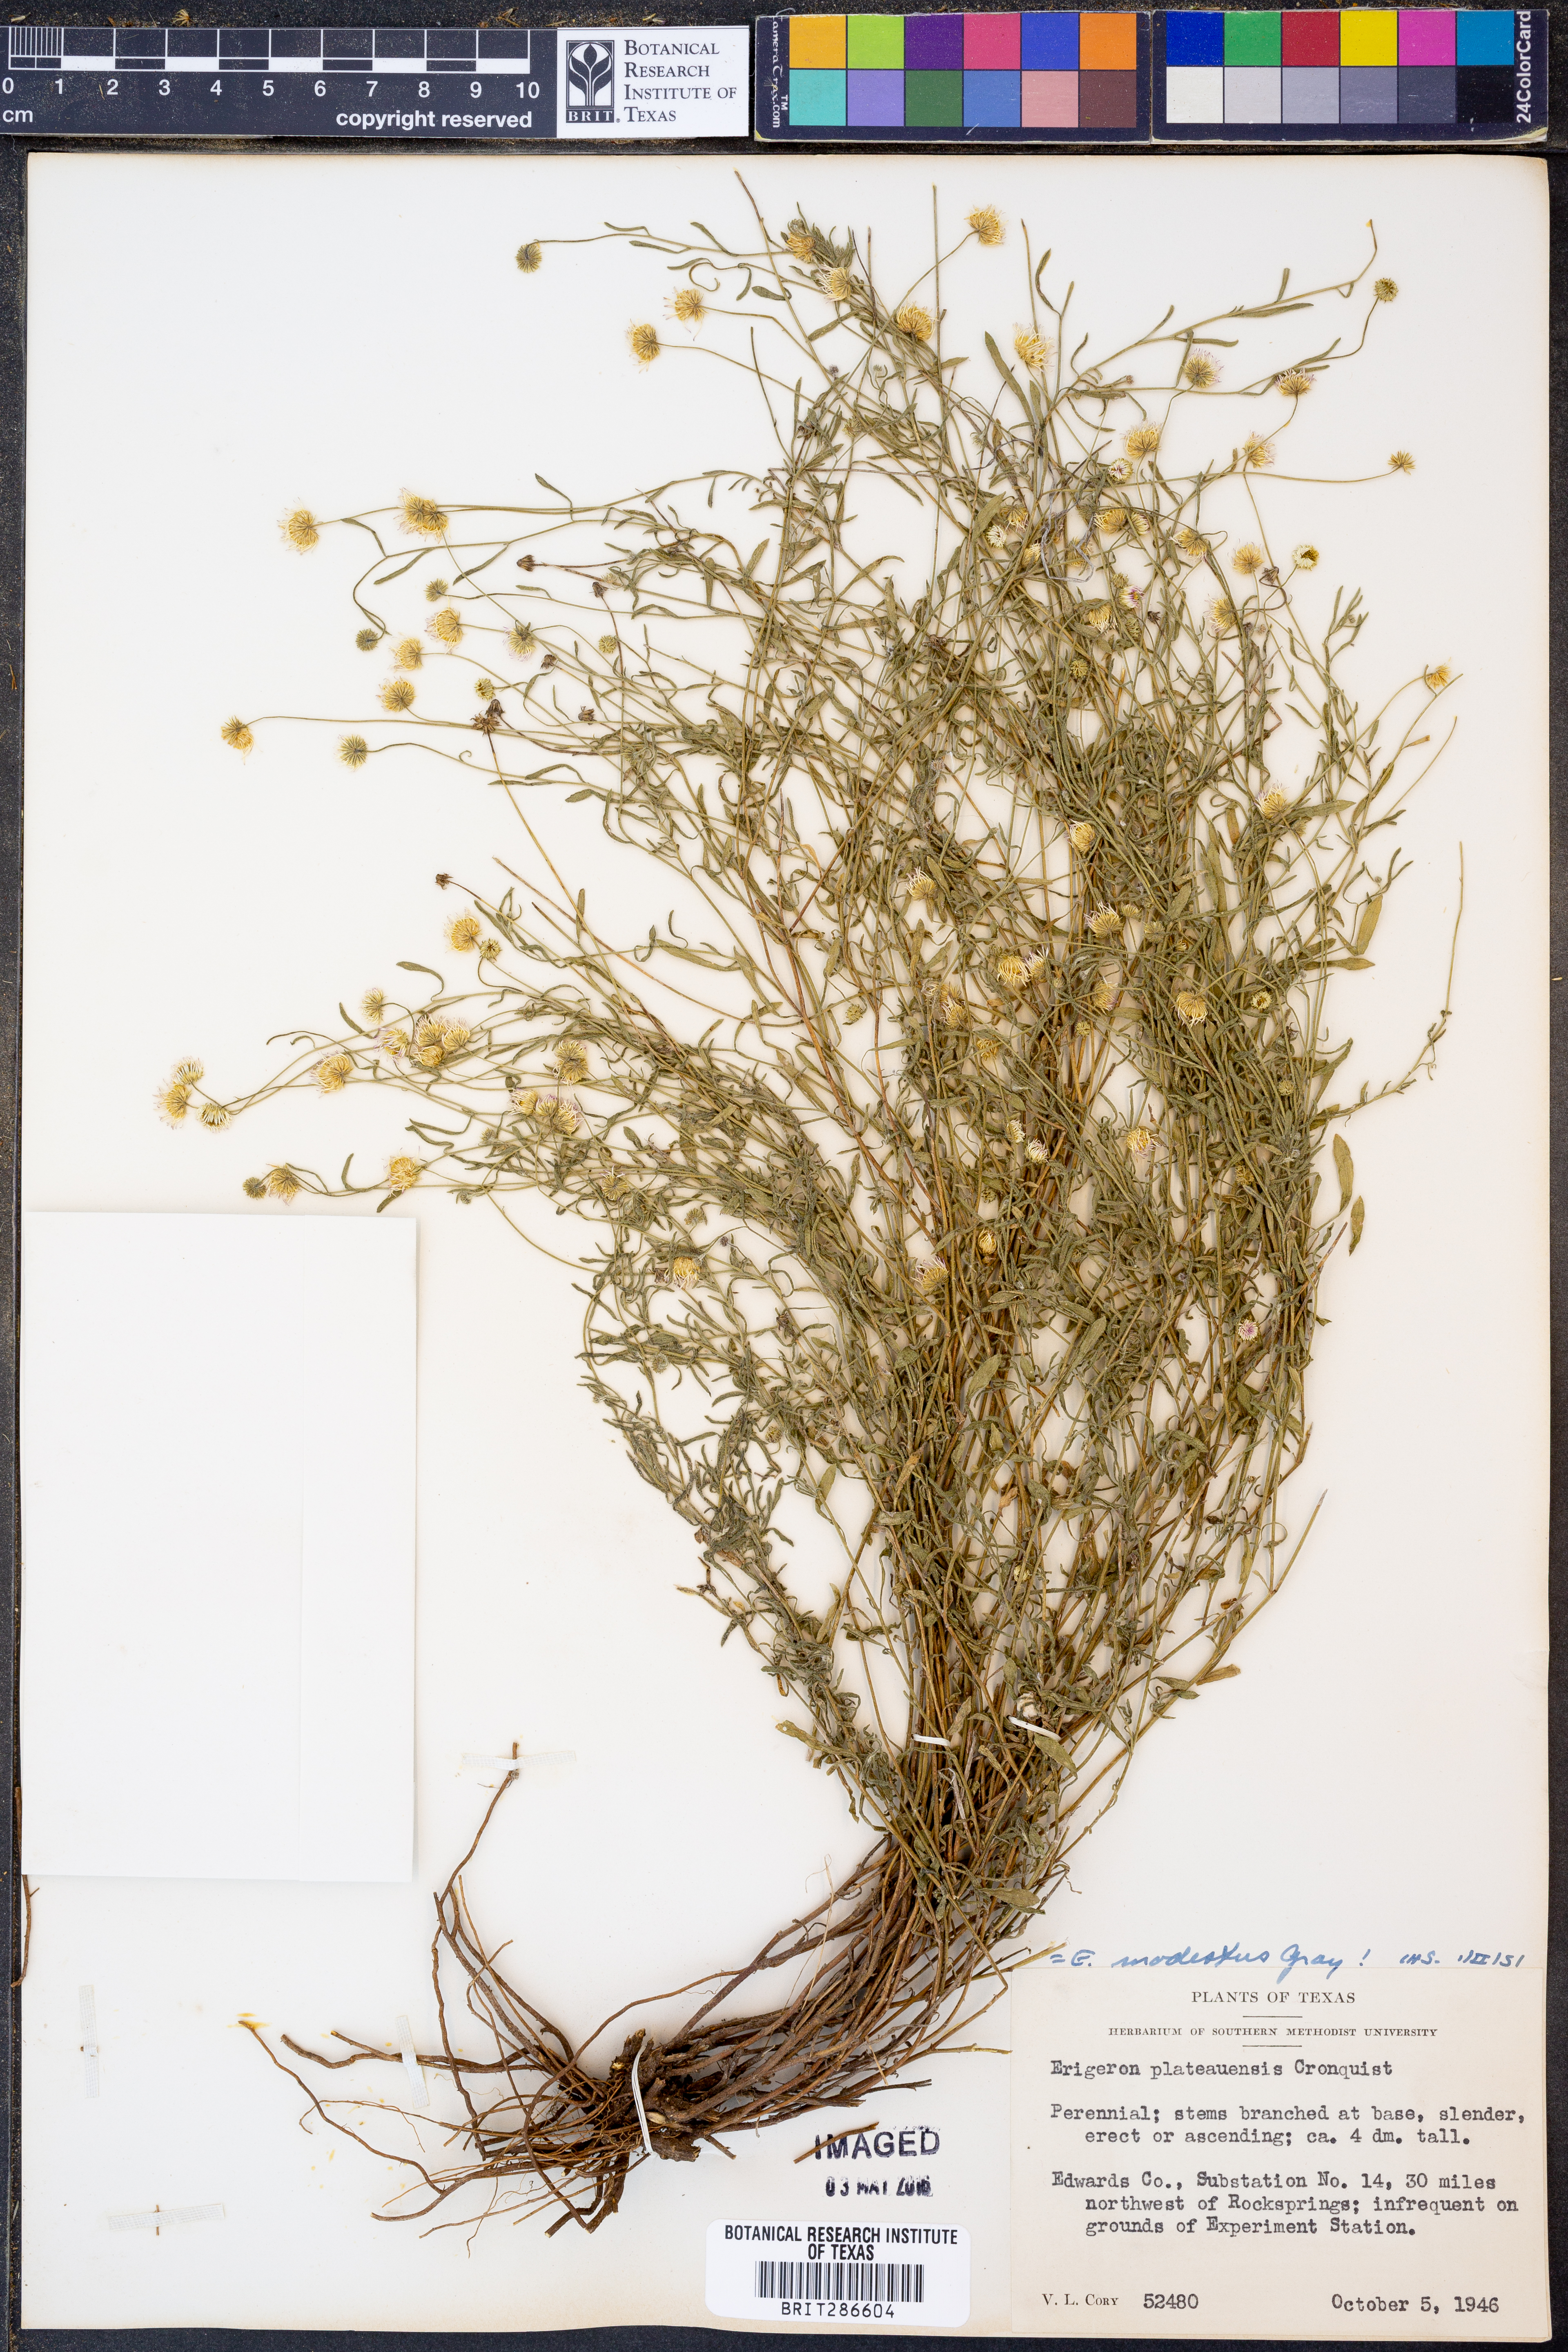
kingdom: Plantae
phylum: Tracheophyta
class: Magnoliopsida
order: Asterales
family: Asteraceae
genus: Erigeron
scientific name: Erigeron modestus
